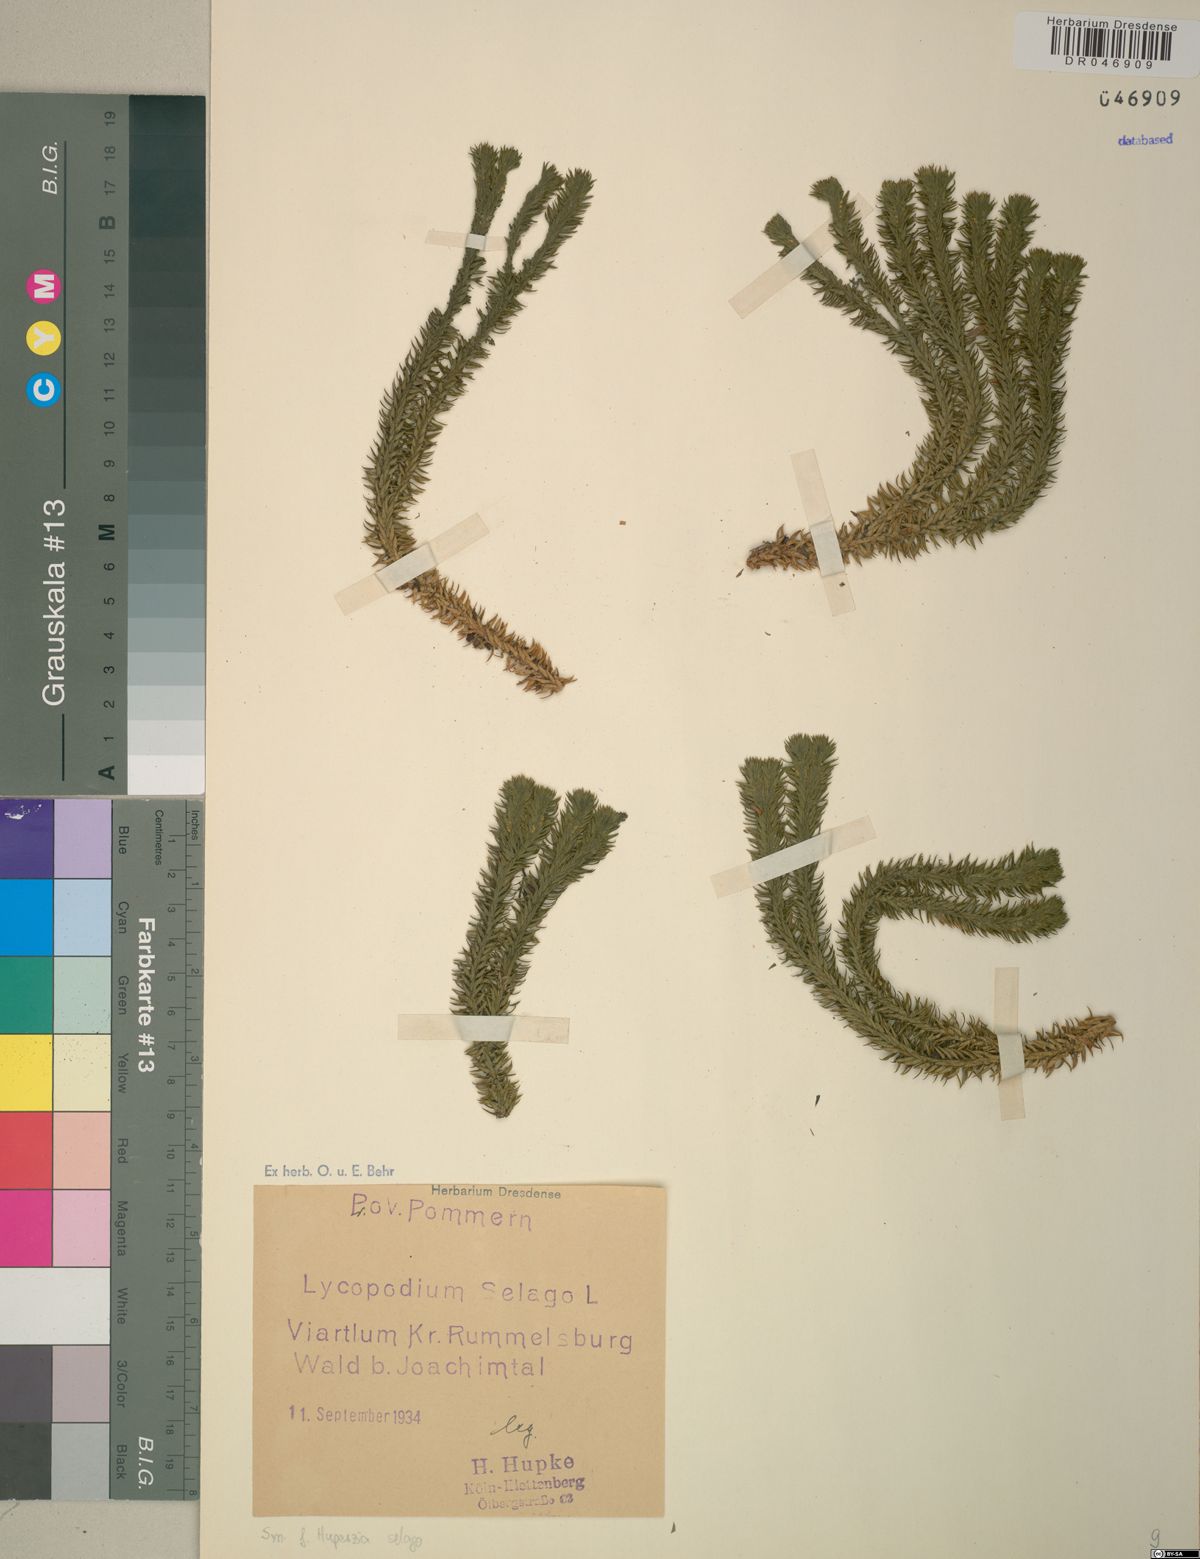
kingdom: Plantae
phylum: Tracheophyta
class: Lycopodiopsida
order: Lycopodiales
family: Lycopodiaceae
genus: Huperzia
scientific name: Huperzia selago
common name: Northern firmoss
